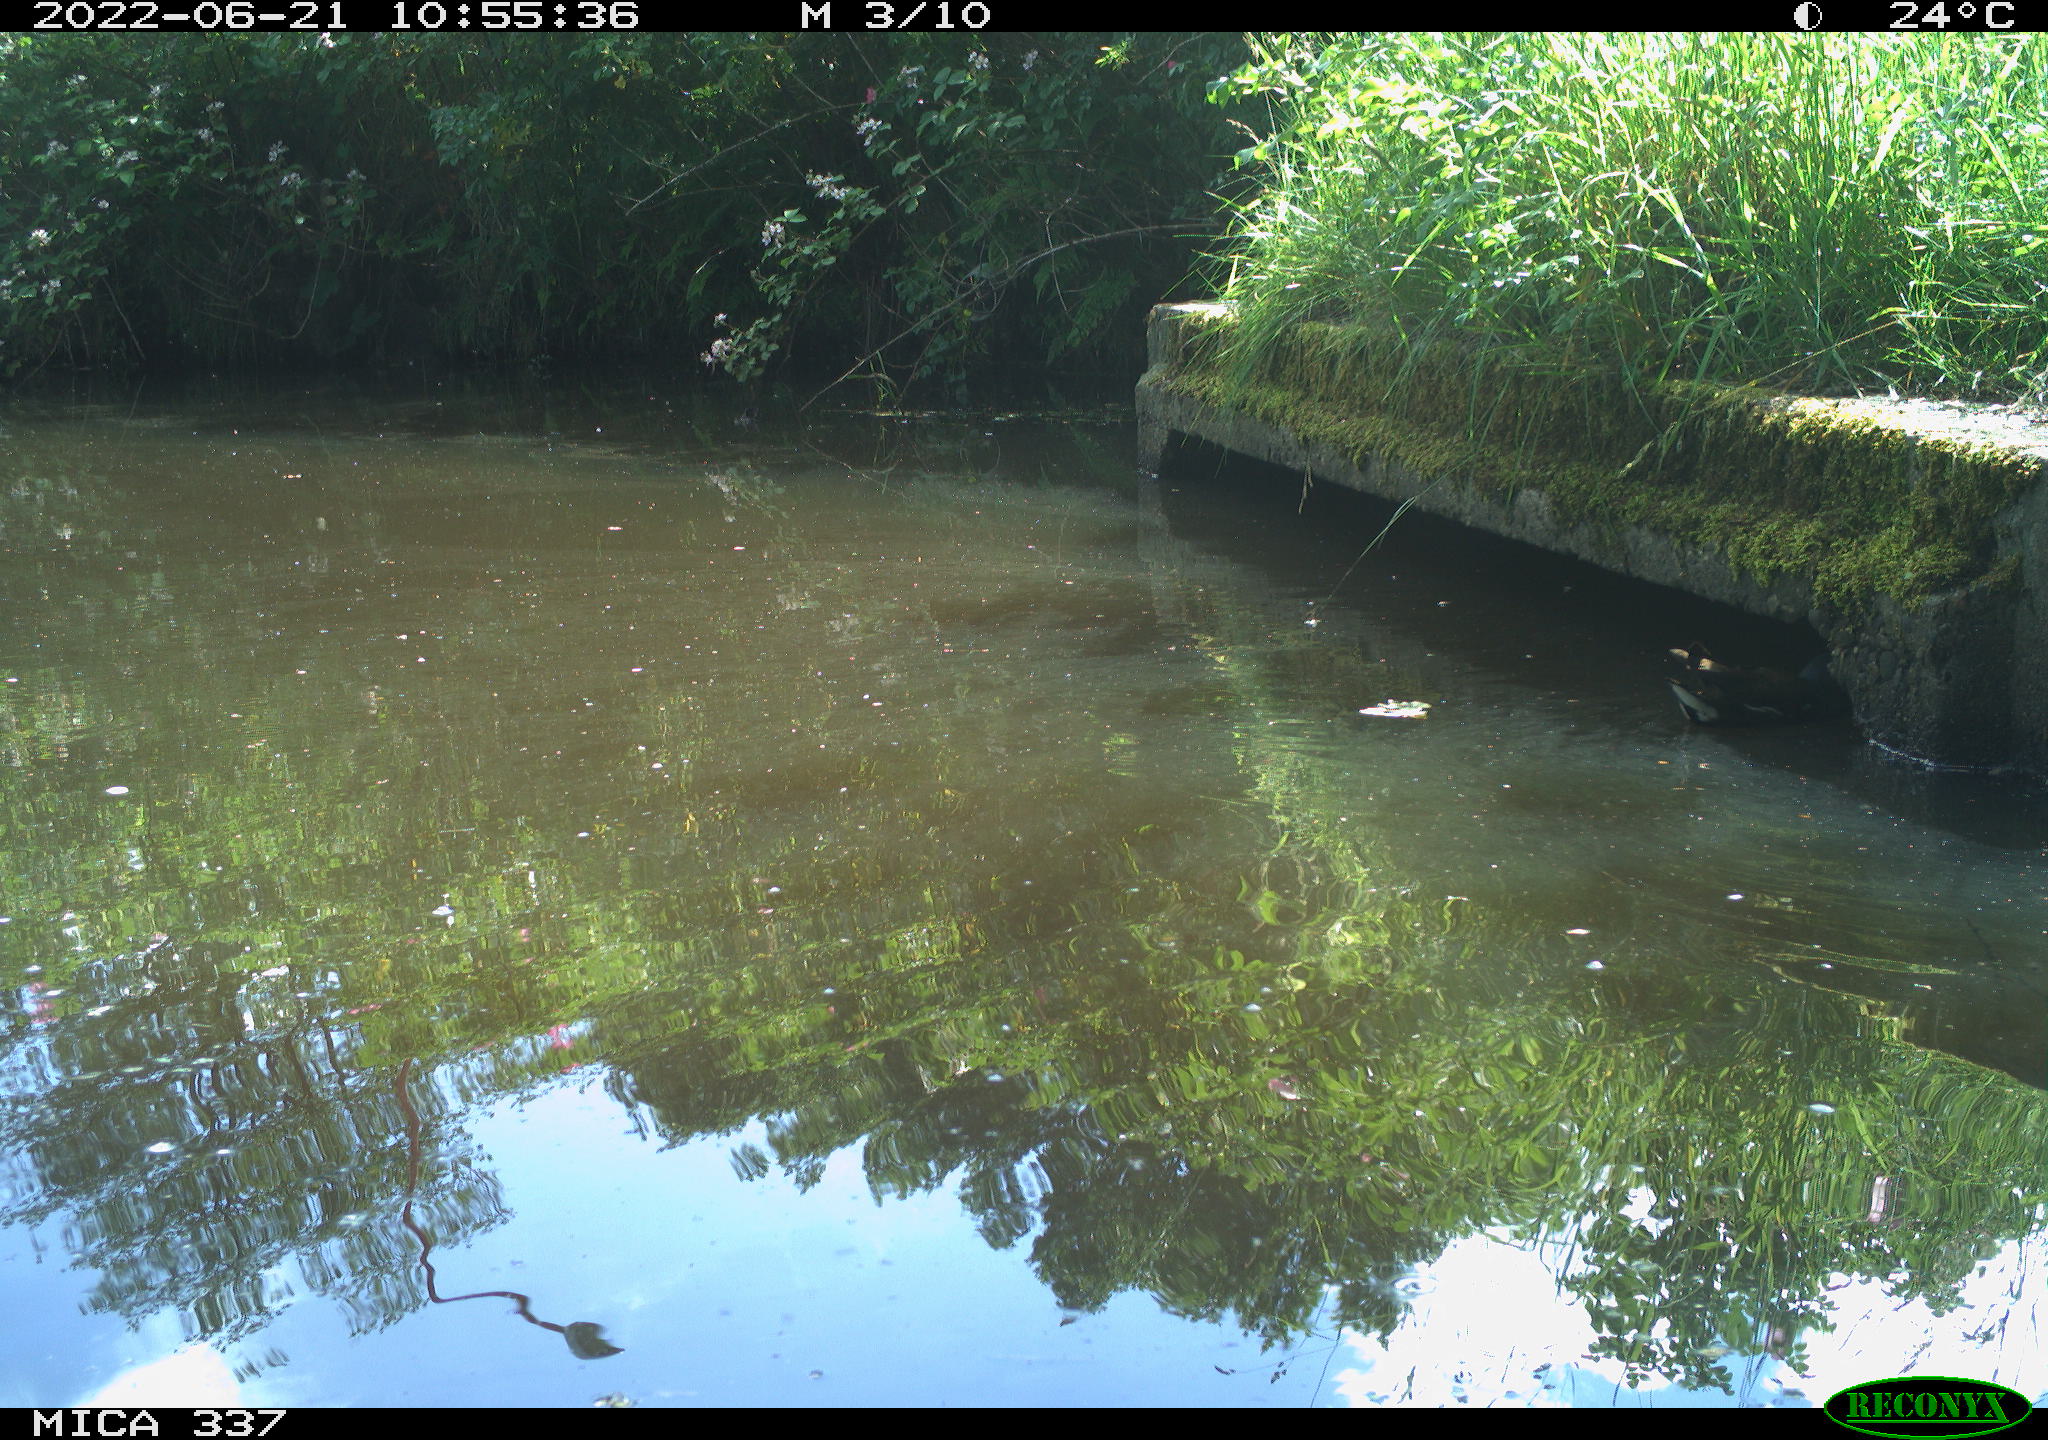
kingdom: Animalia
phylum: Chordata
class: Aves
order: Gruiformes
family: Rallidae
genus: Gallinula
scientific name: Gallinula chloropus
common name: Common moorhen
